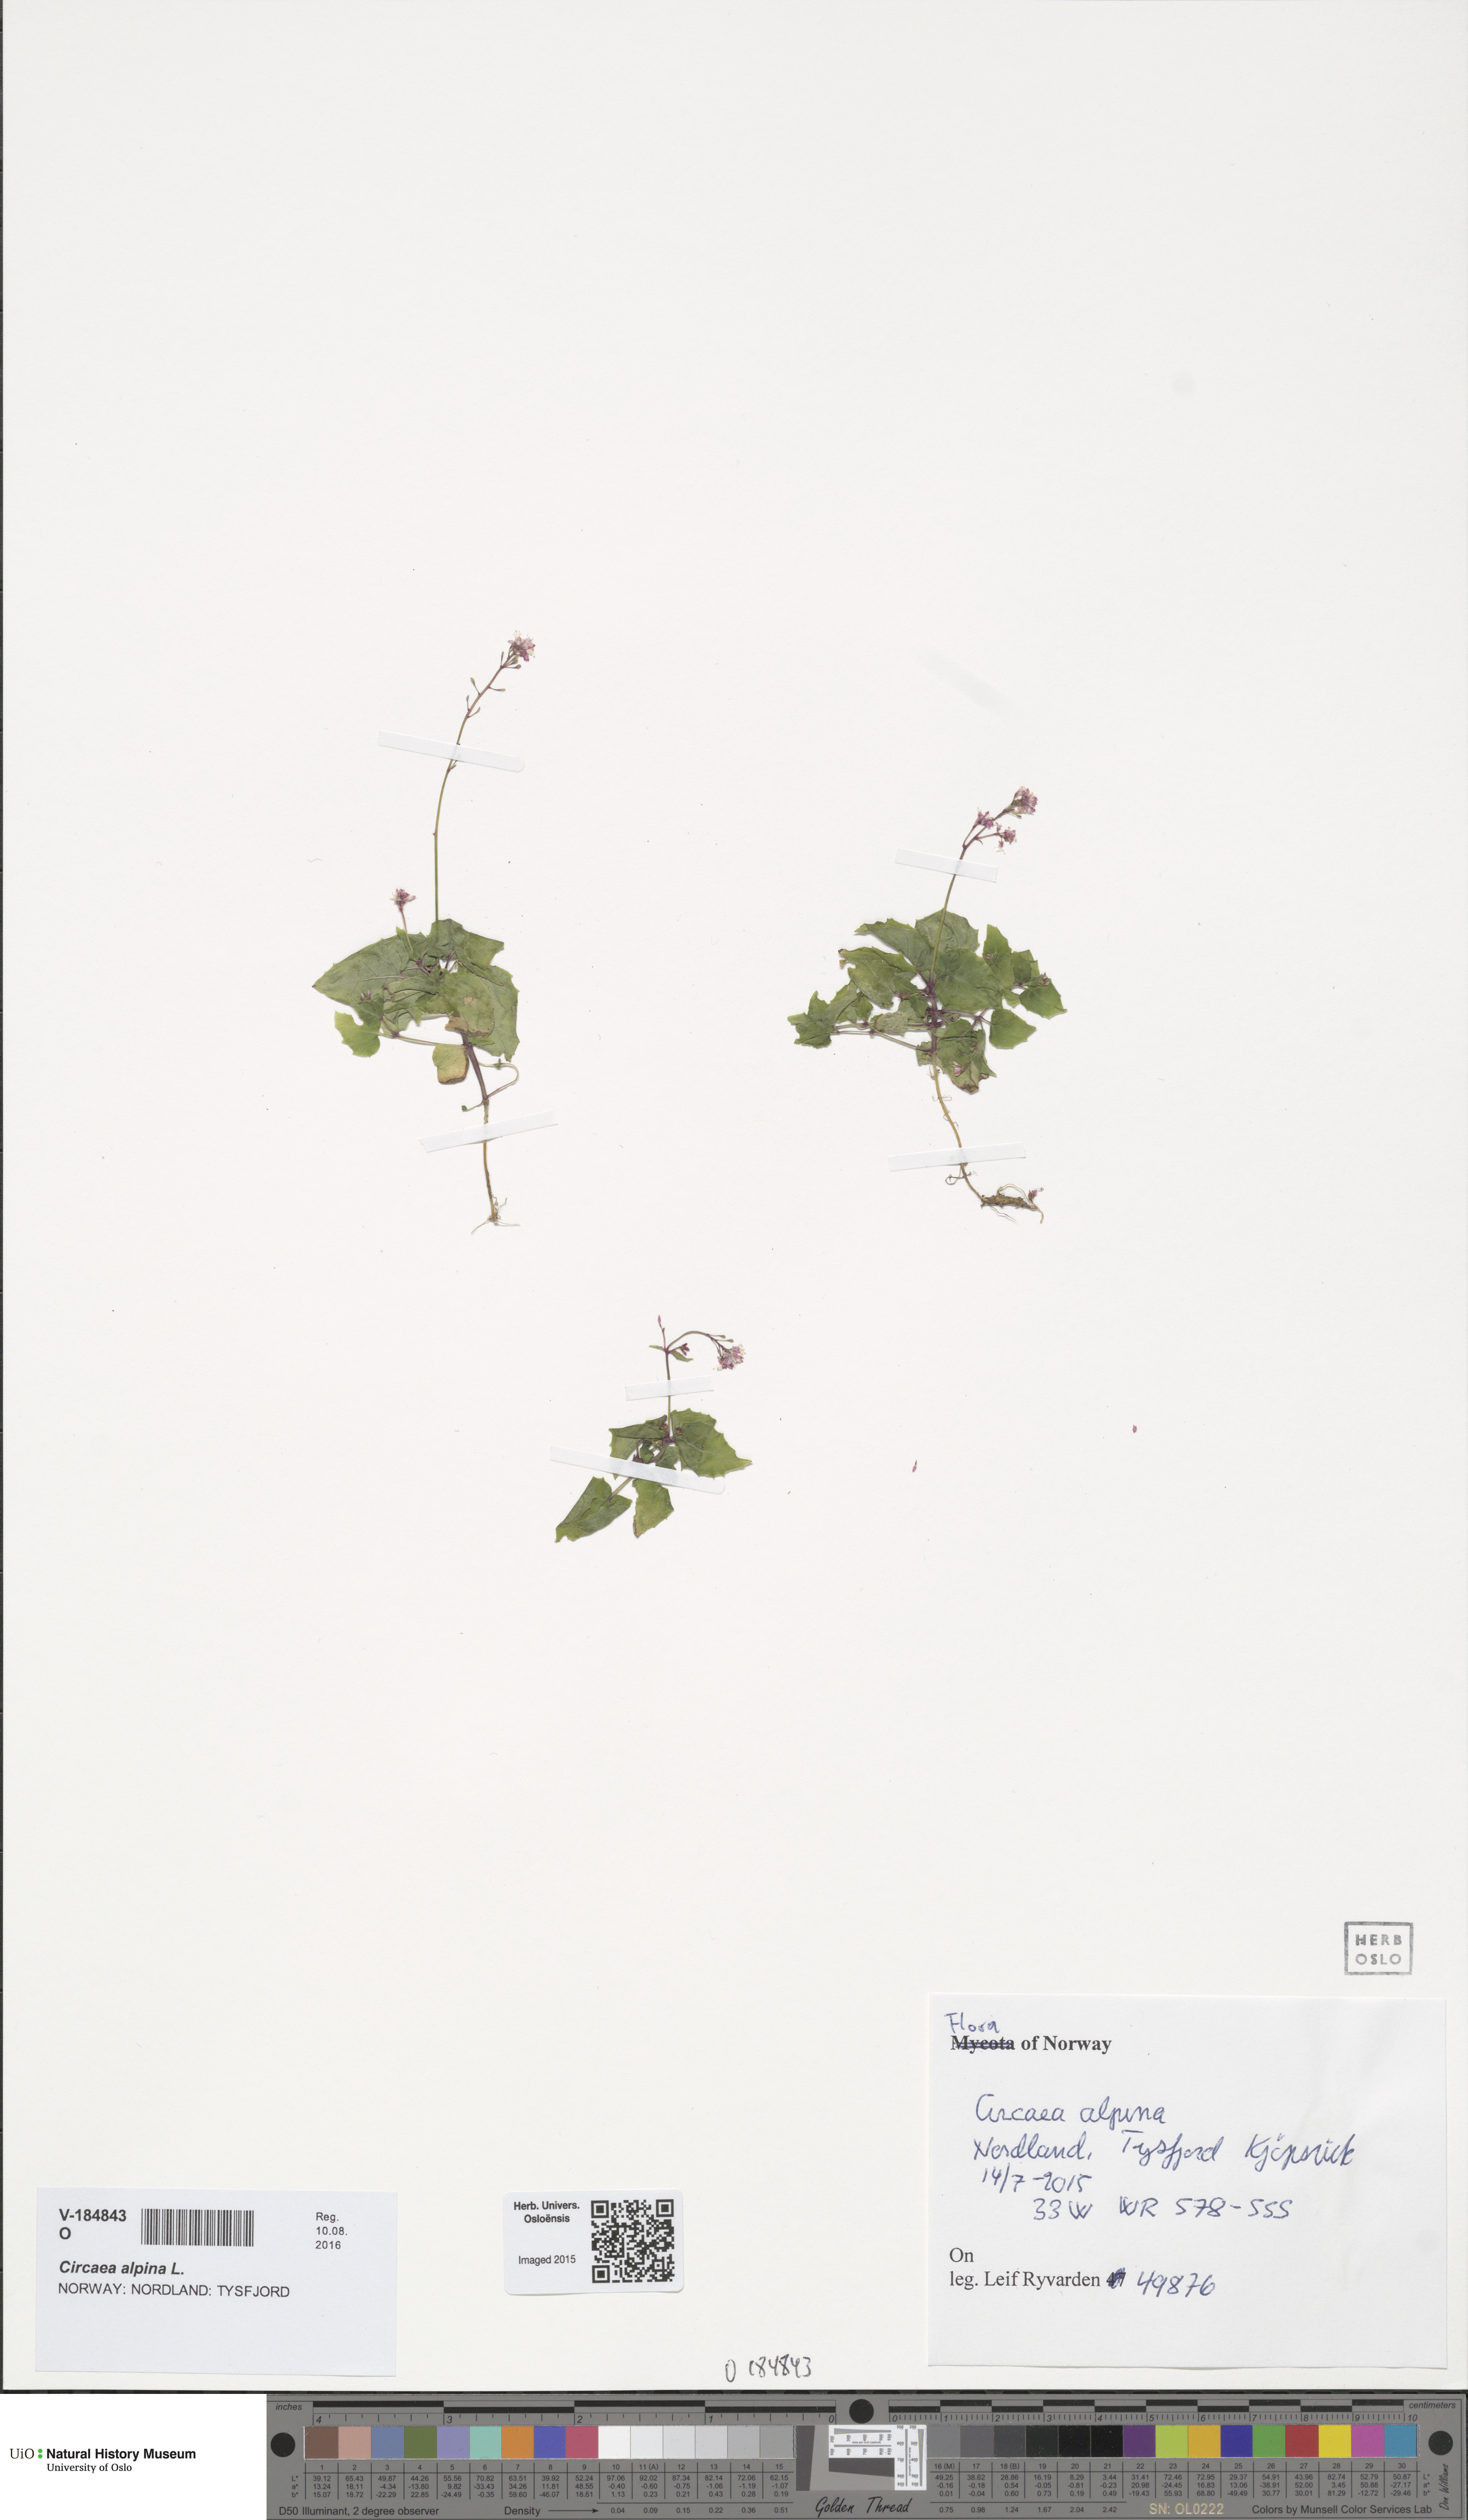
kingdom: Plantae
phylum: Tracheophyta
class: Magnoliopsida
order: Myrtales
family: Onagraceae
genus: Circaea
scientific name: Circaea alpina
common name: Alpine enchanter's-nightshade
